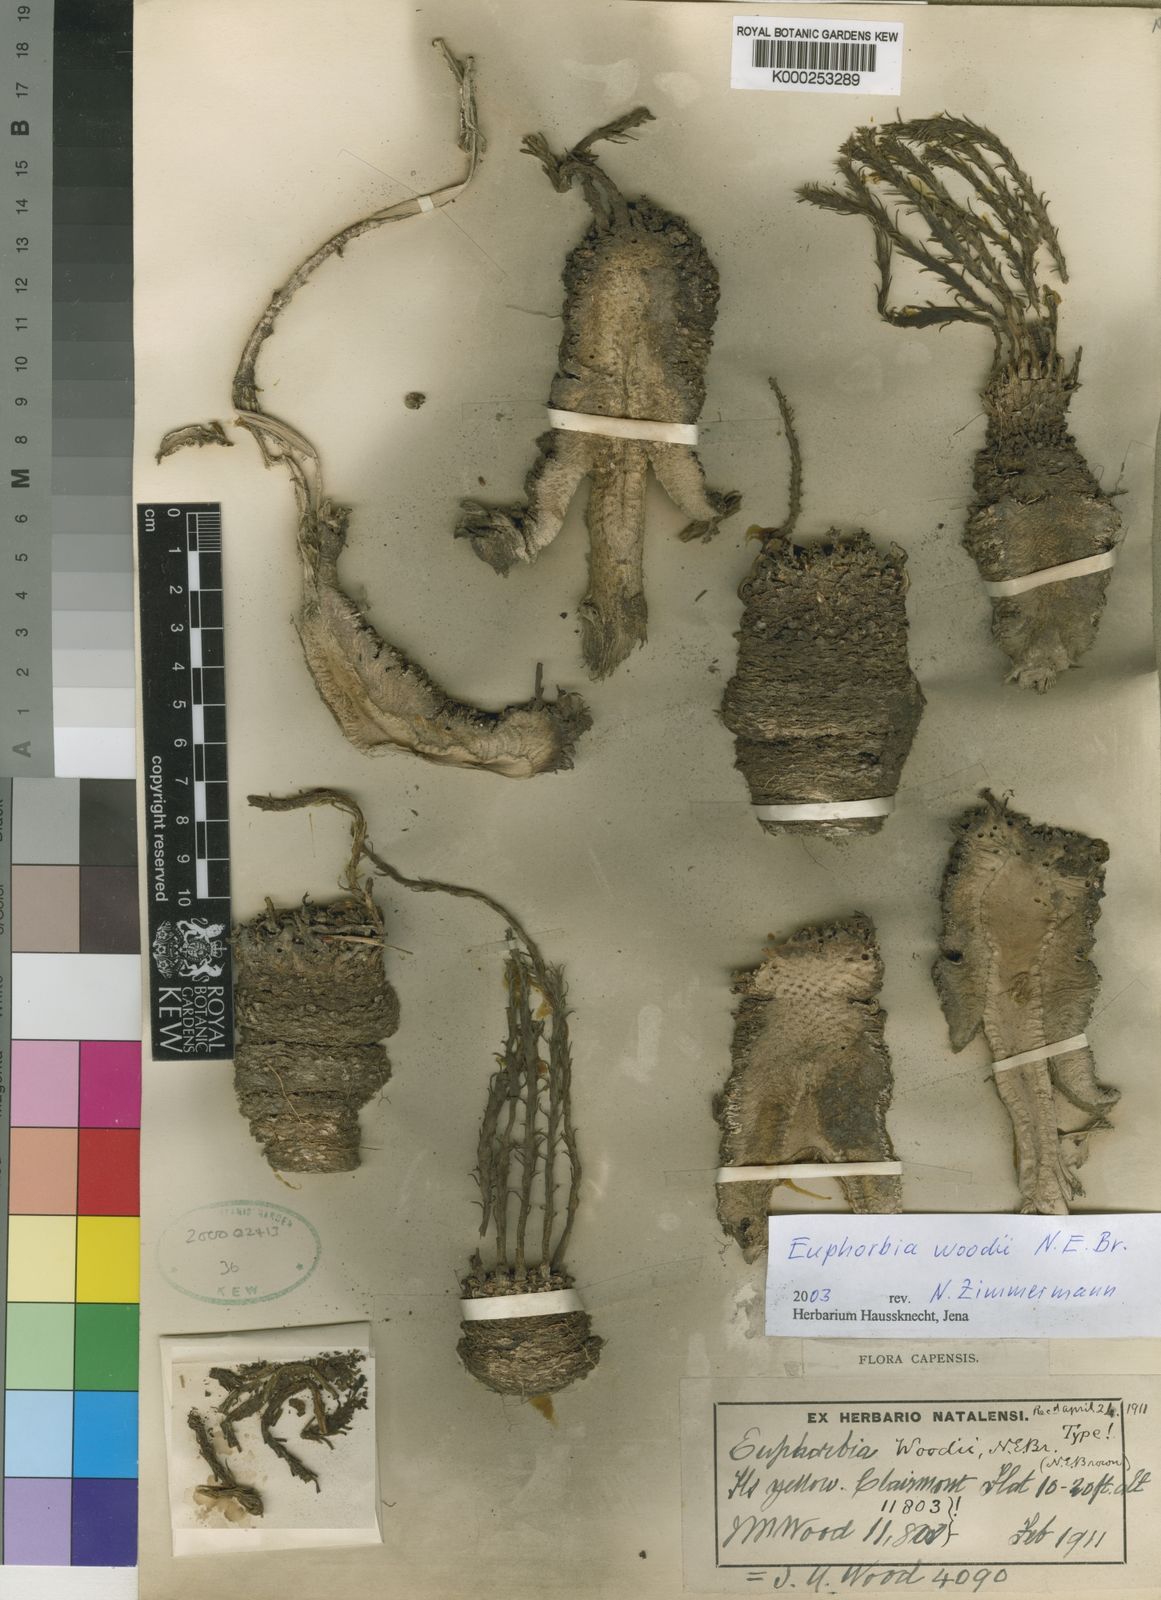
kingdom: Plantae
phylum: Tracheophyta
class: Magnoliopsida
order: Malpighiales
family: Euphorbiaceae
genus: Euphorbia
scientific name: Euphorbia flanaganii
